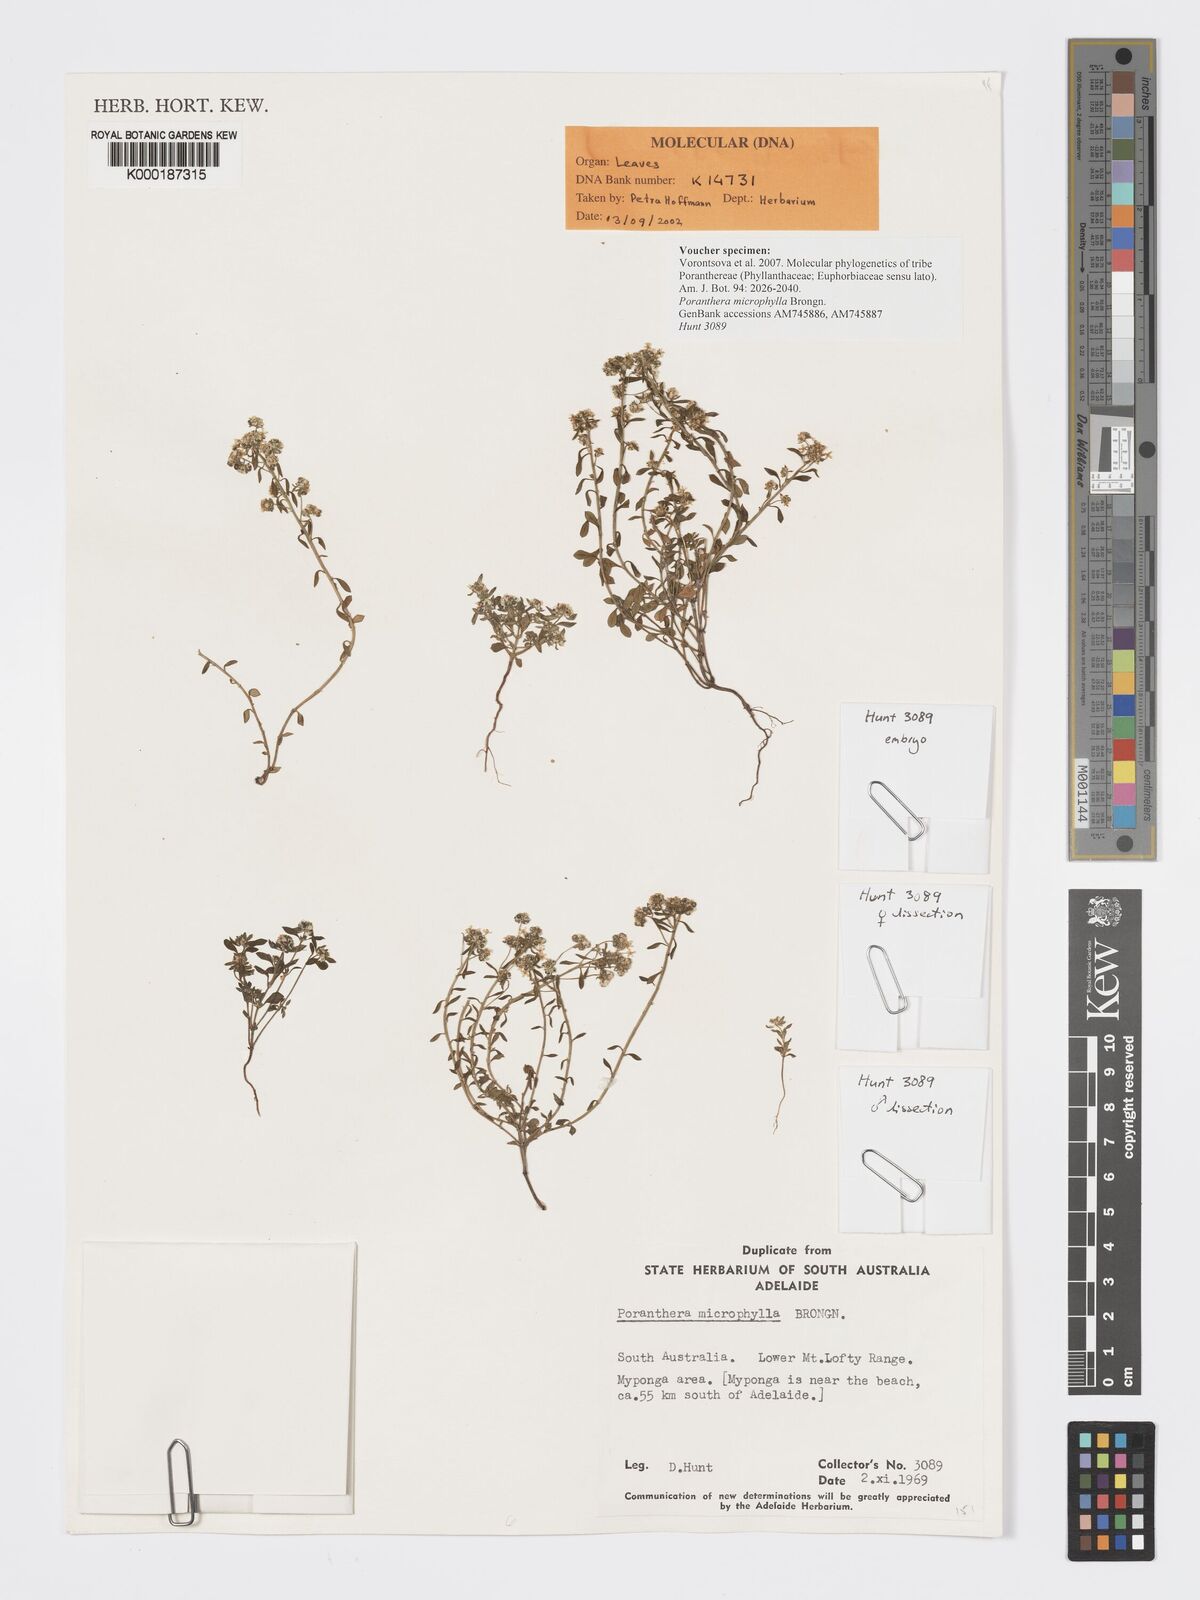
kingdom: Plantae
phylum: Tracheophyta
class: Magnoliopsida
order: Malpighiales
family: Phyllanthaceae
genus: Poranthera
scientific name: Poranthera microphylla
